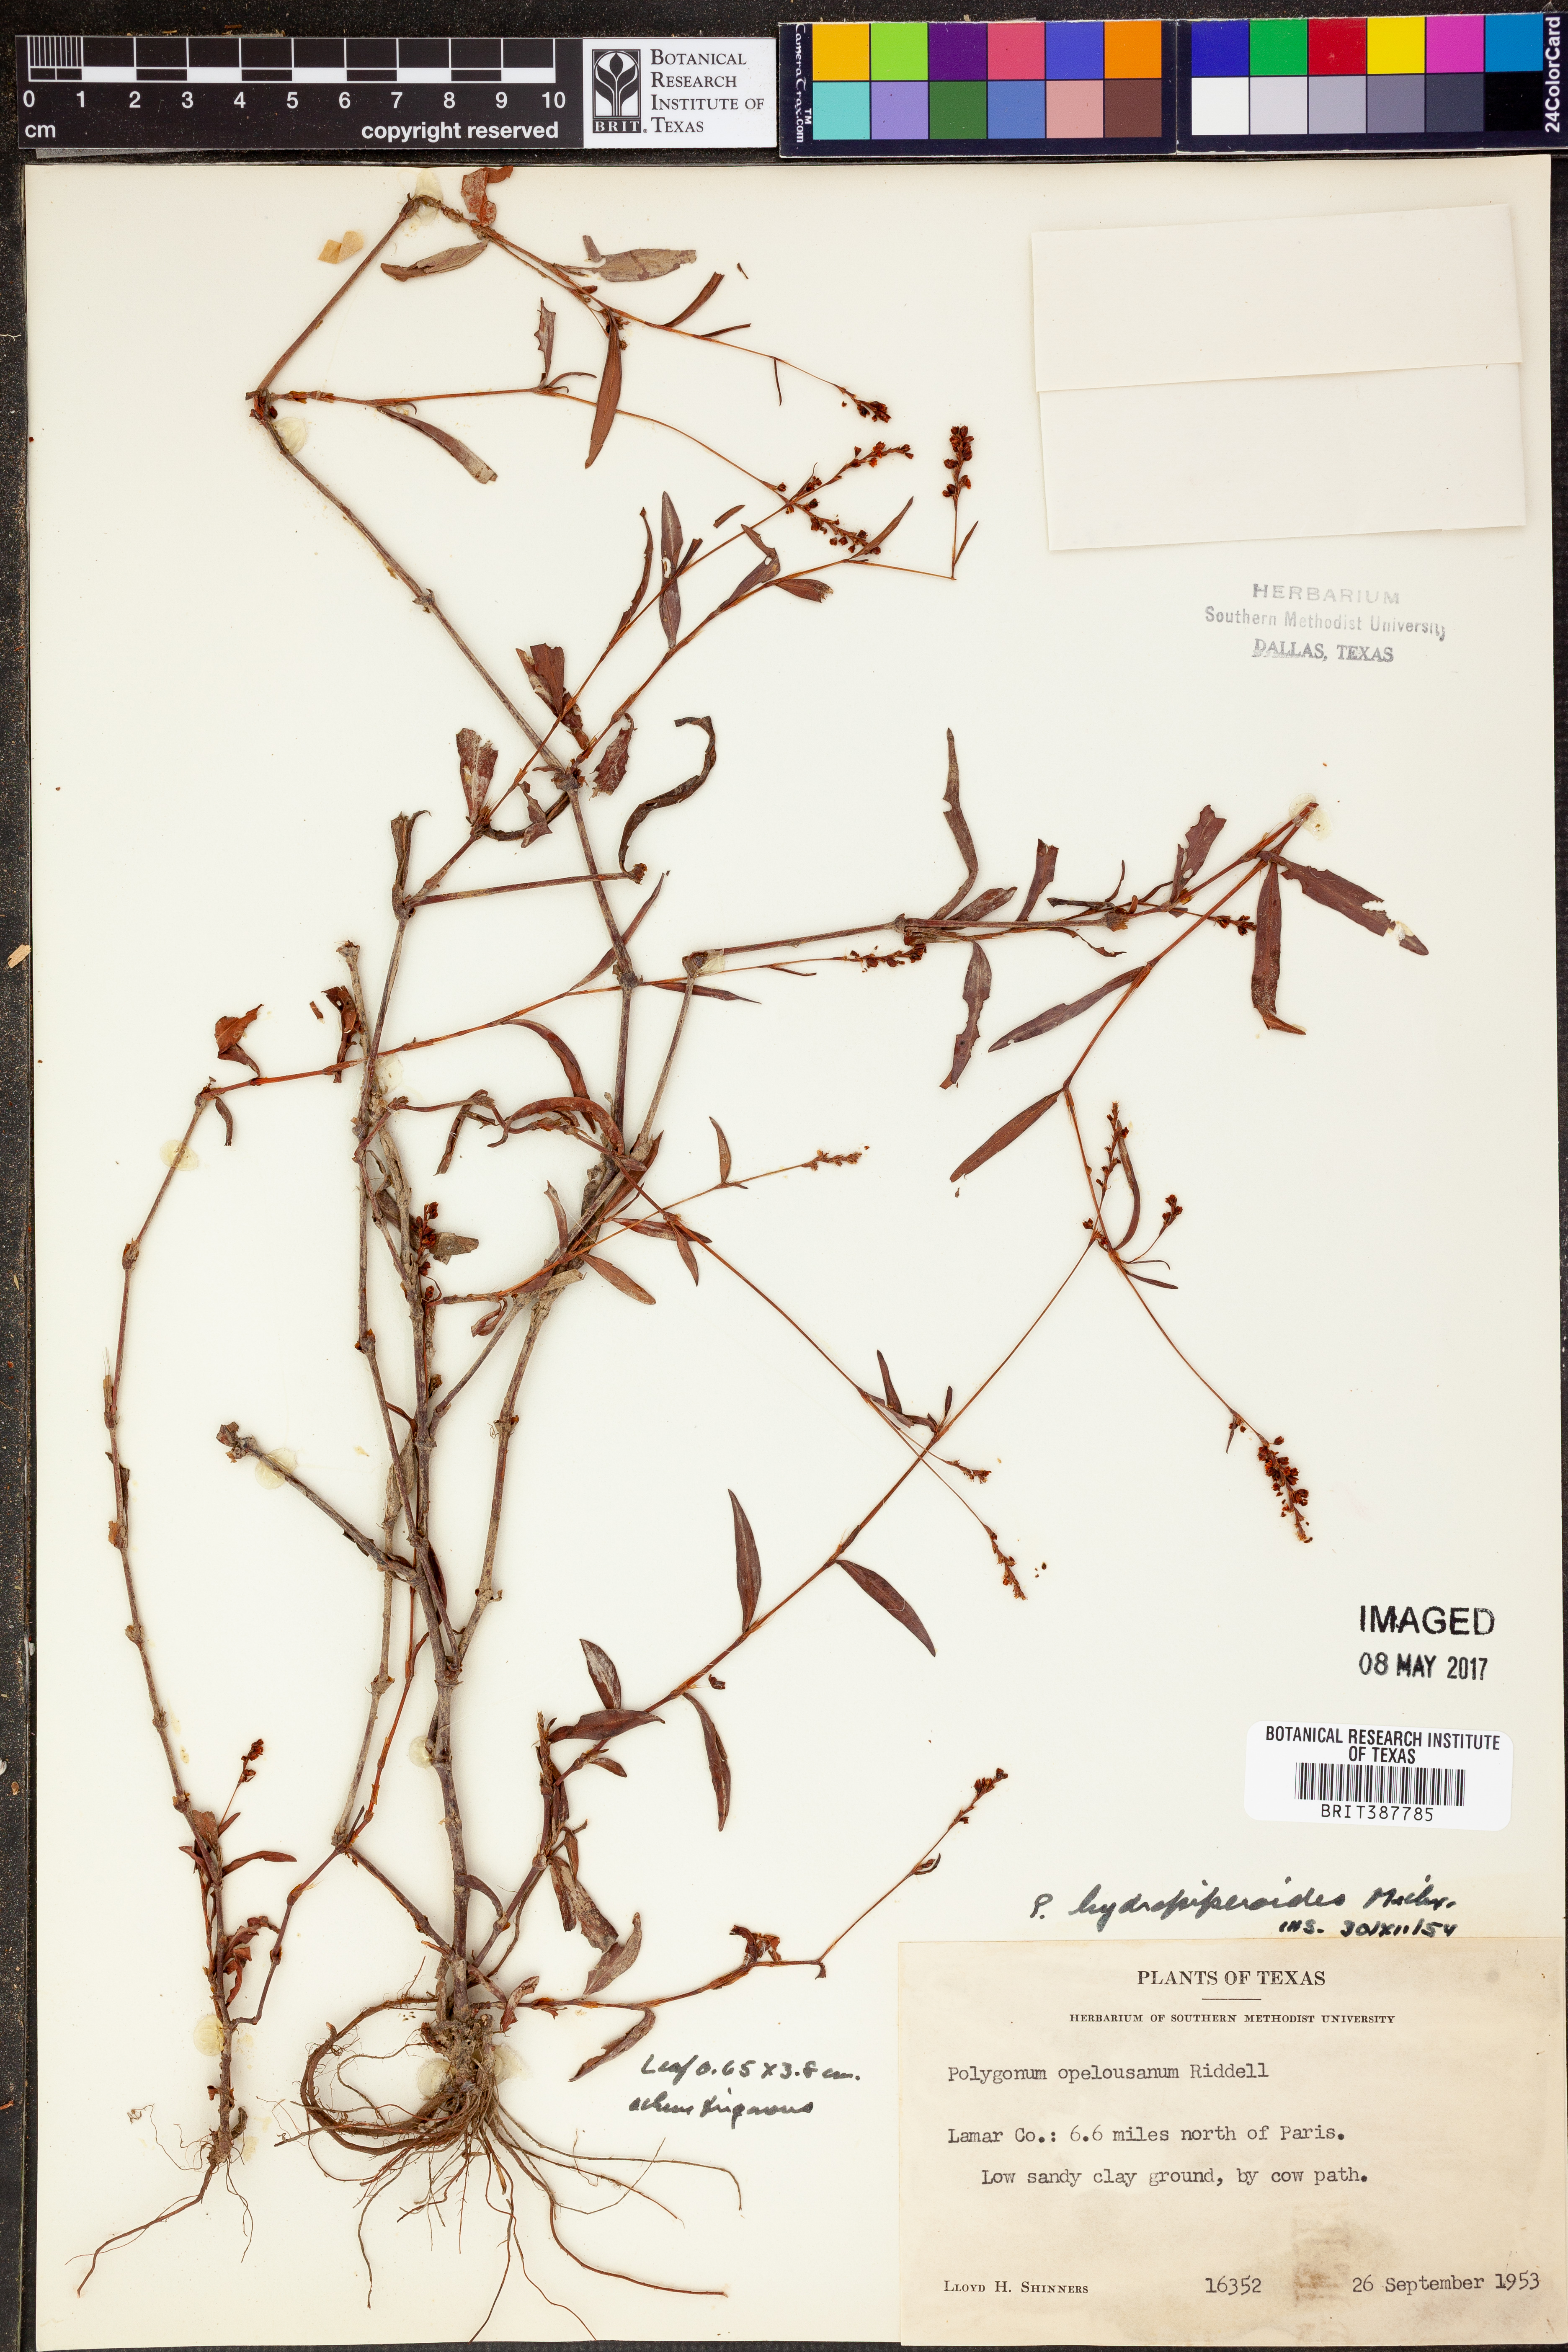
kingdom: Plantae
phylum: Tracheophyta
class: Magnoliopsida
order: Caryophyllales
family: Polygonaceae
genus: Persicaria
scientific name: Persicaria hydropiperoides
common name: Swamp smartweed
